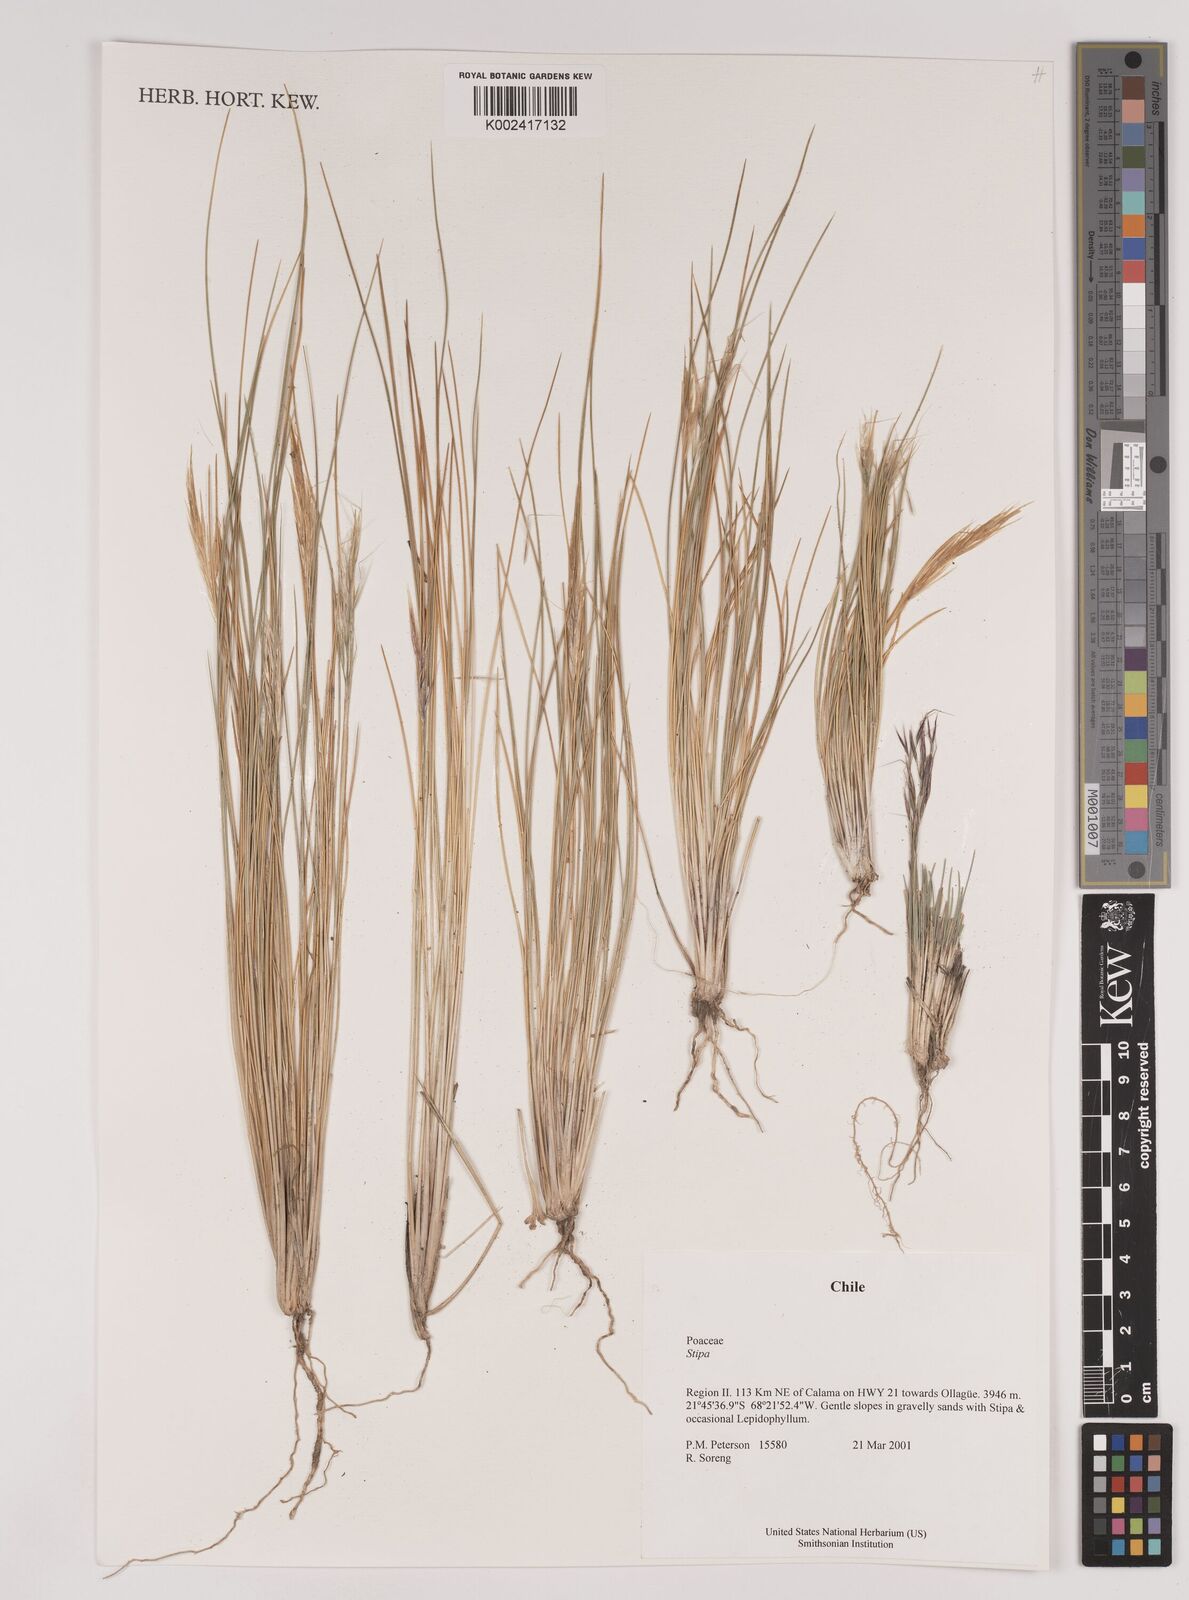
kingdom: Plantae
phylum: Tracheophyta
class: Liliopsida
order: Poales
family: Poaceae
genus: Stipa
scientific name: Stipa
